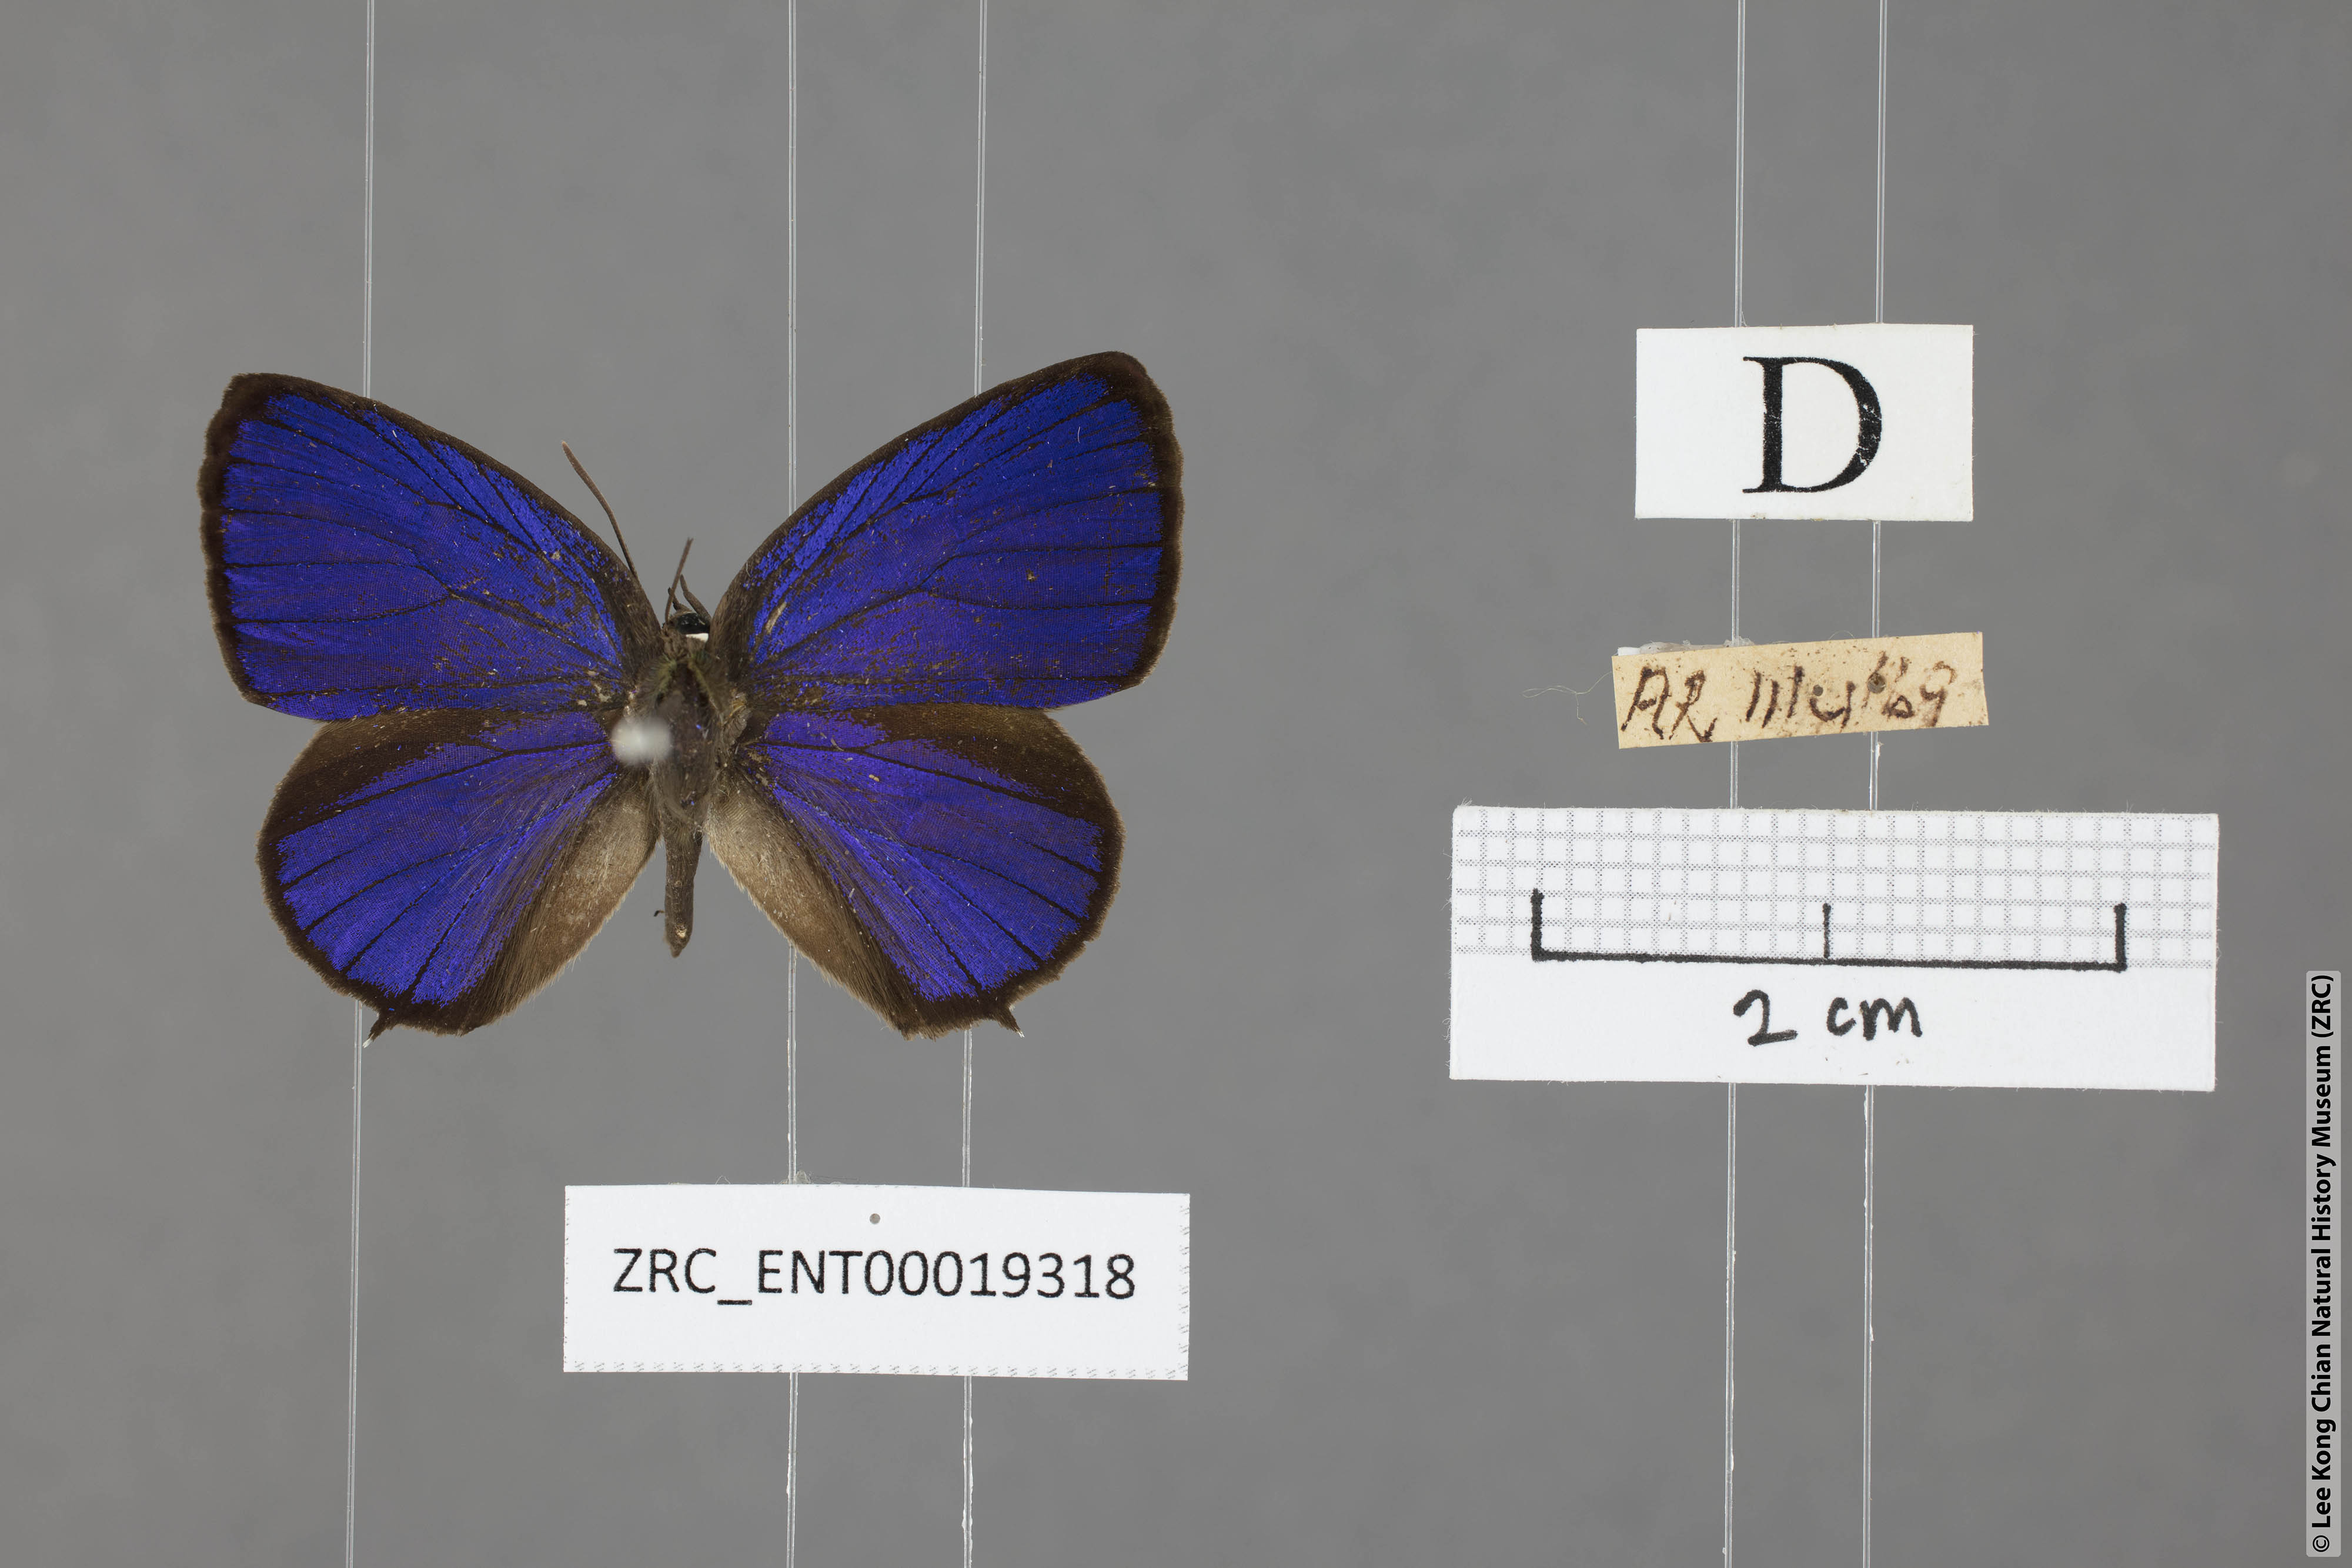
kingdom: Animalia
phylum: Arthropoda
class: Insecta
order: Lepidoptera
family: Lycaenidae
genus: Arhopala
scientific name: Arhopala buddha
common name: Buddha oakblue
